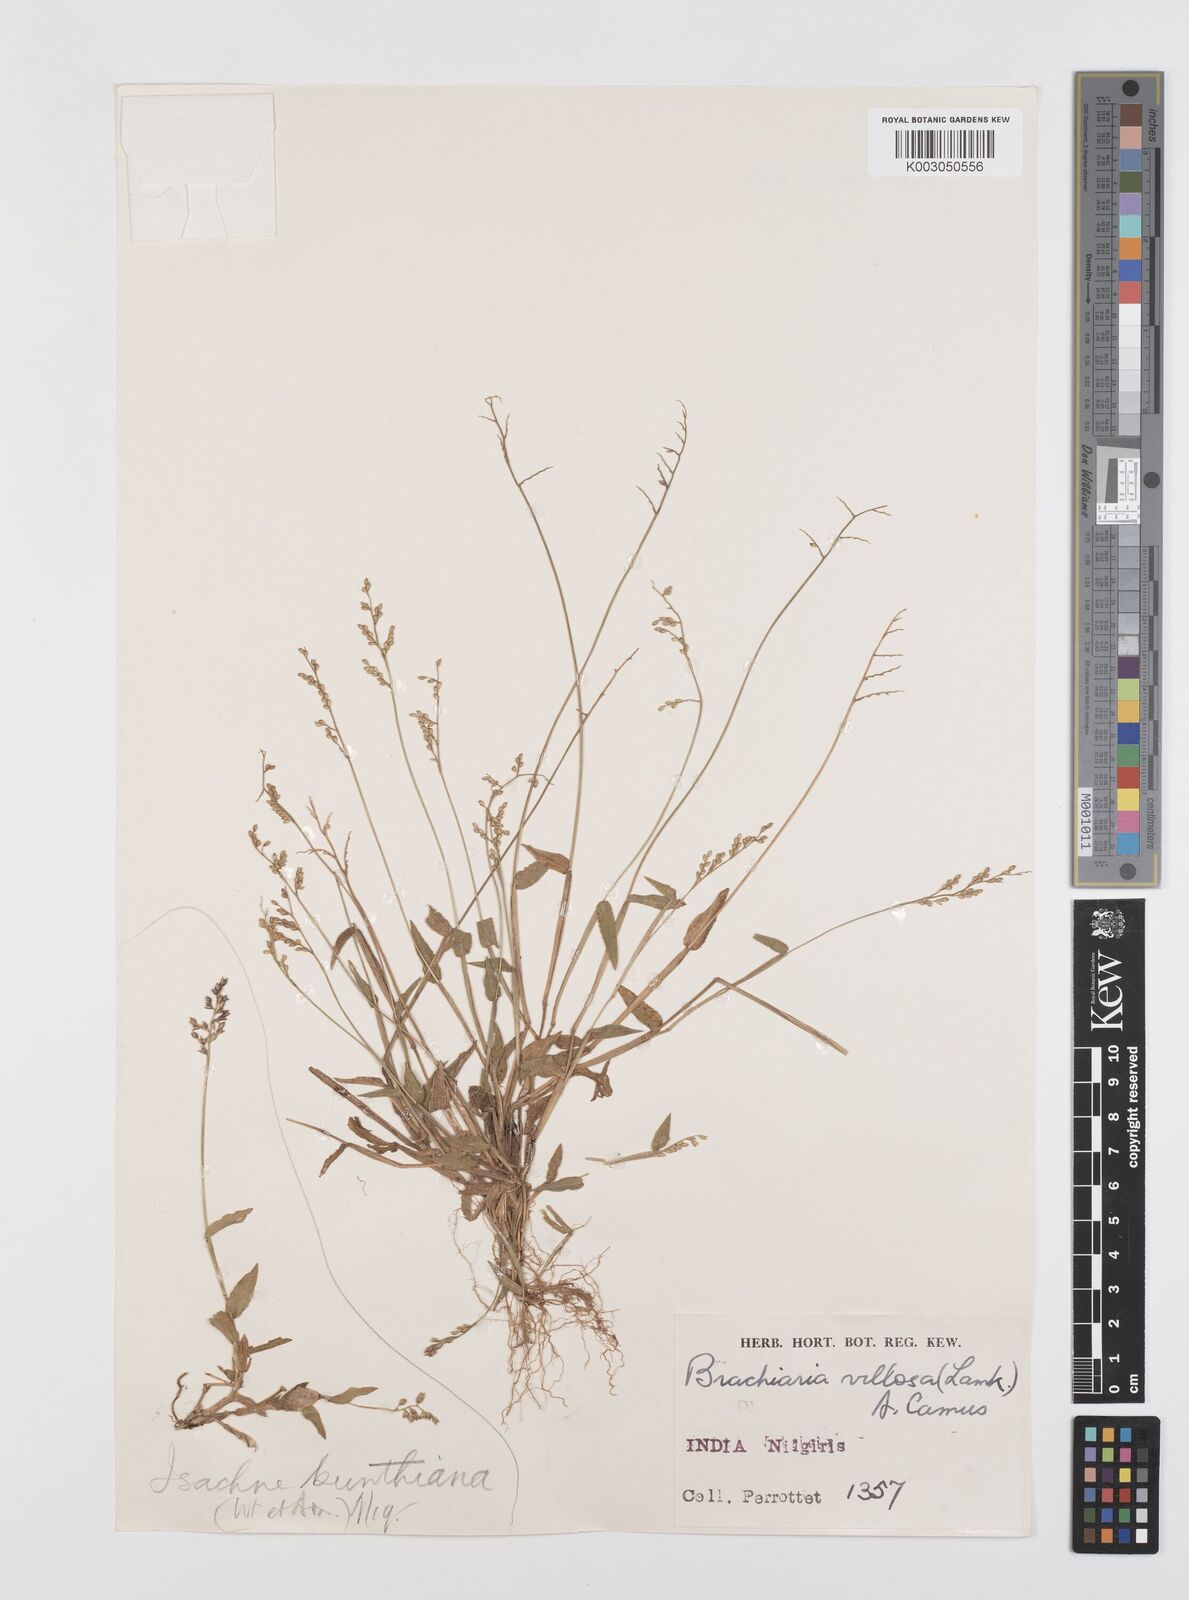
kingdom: Plantae
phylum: Tracheophyta
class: Liliopsida
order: Poales
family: Poaceae
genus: Urochloa
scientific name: Urochloa villosa
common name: Hairy signalgrass
